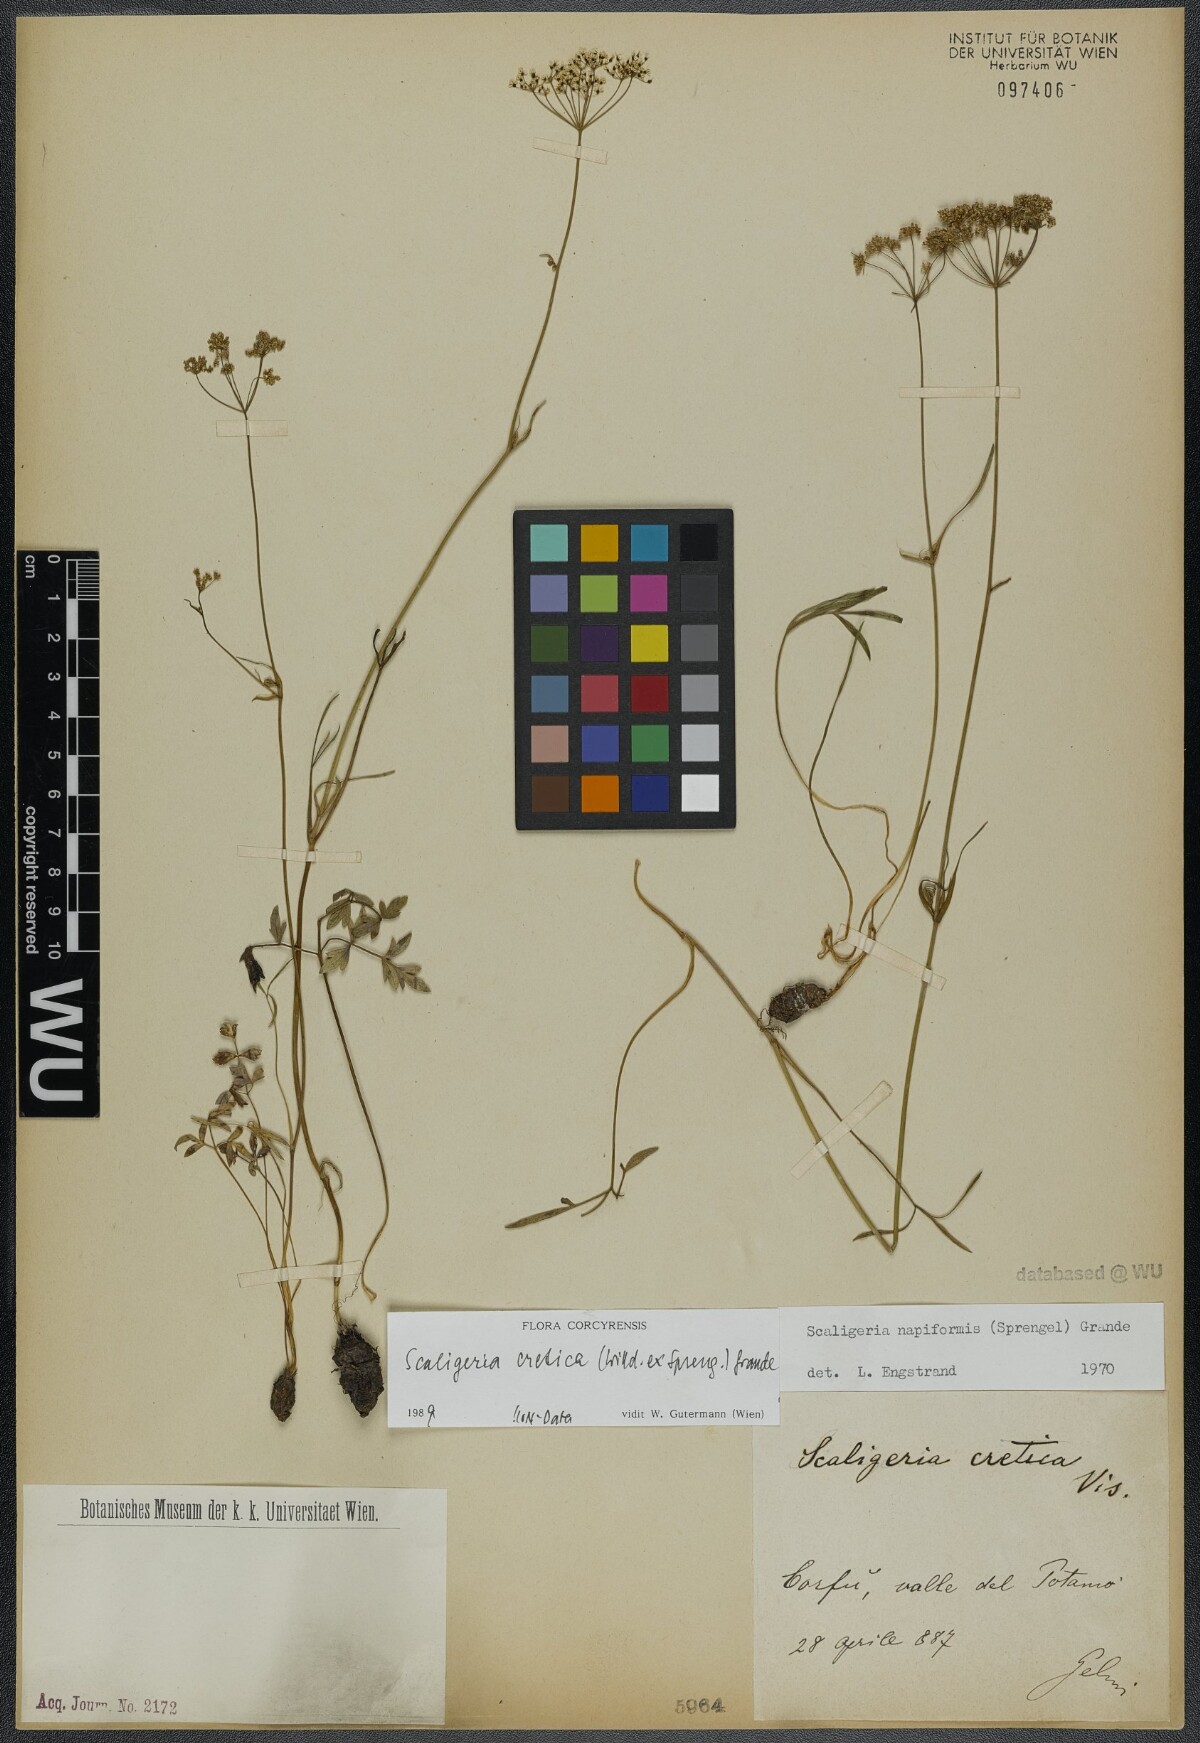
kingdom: Plantae
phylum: Tracheophyta
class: Magnoliopsida
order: Apiales
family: Apiaceae
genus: Scaligeria
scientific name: Scaligeria napiformis
